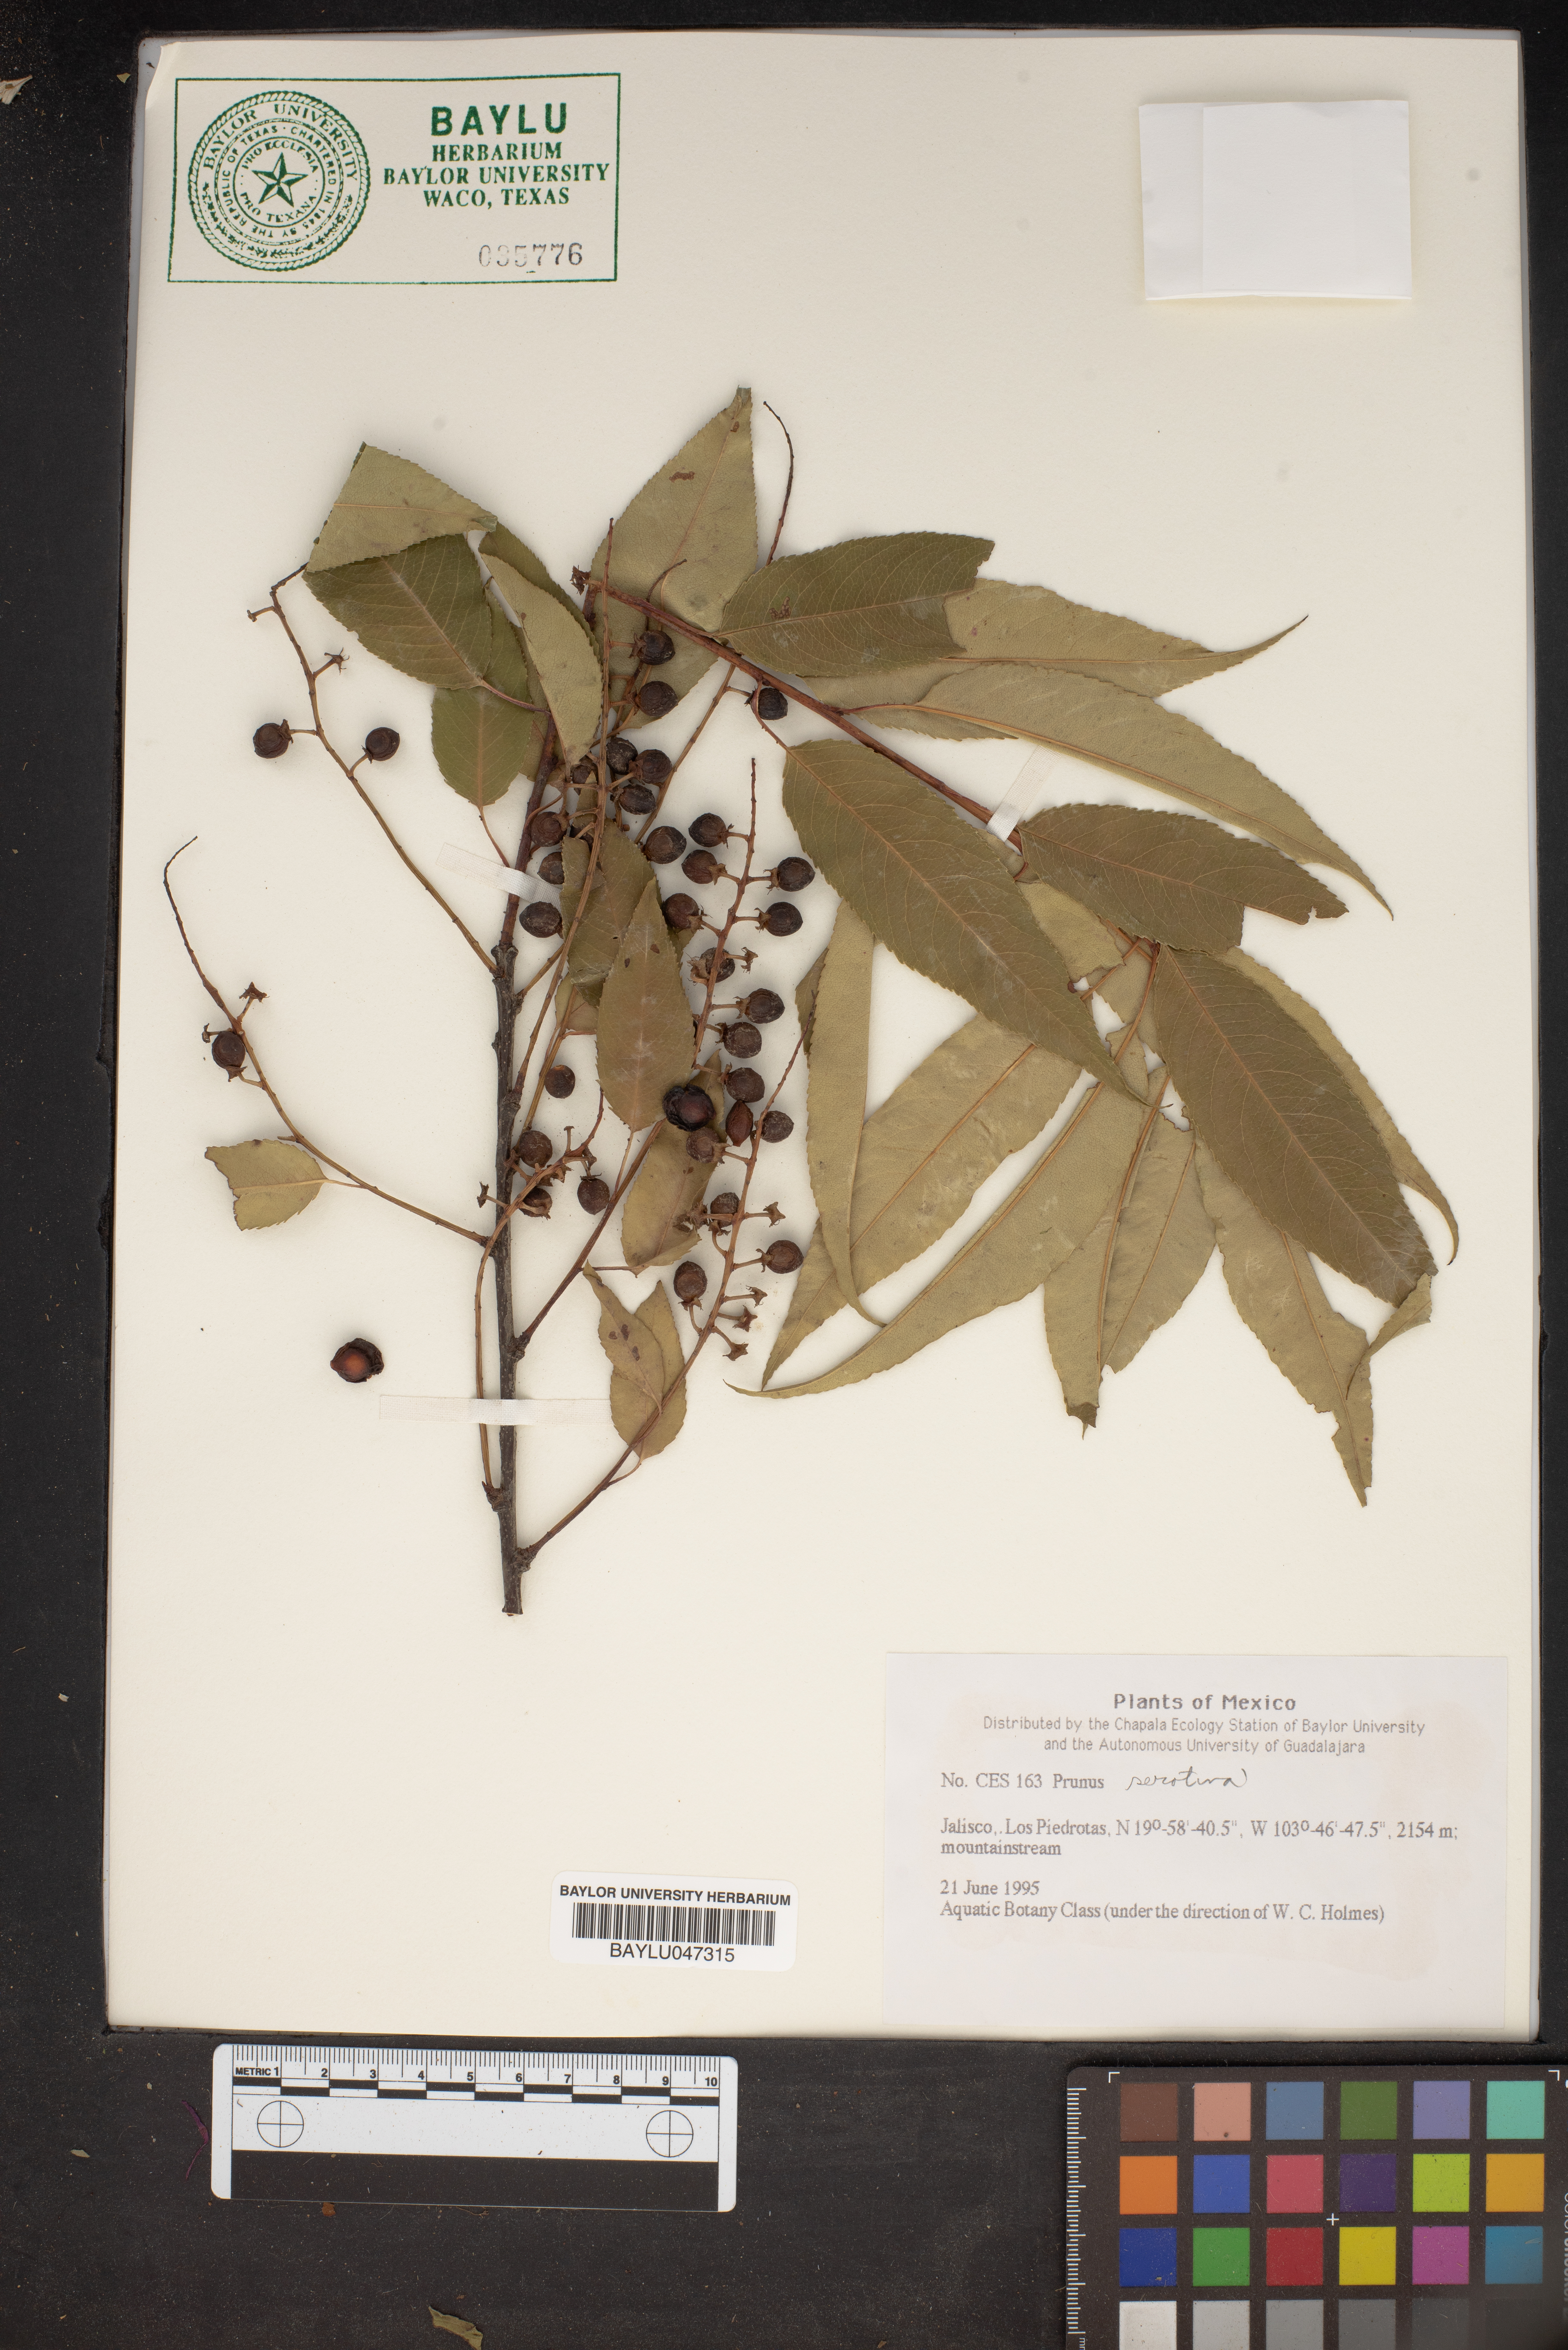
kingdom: Plantae
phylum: Tracheophyta
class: Magnoliopsida
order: Rosales
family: Rosaceae
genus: Prunus
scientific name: Prunus serotina
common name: Black cherry
